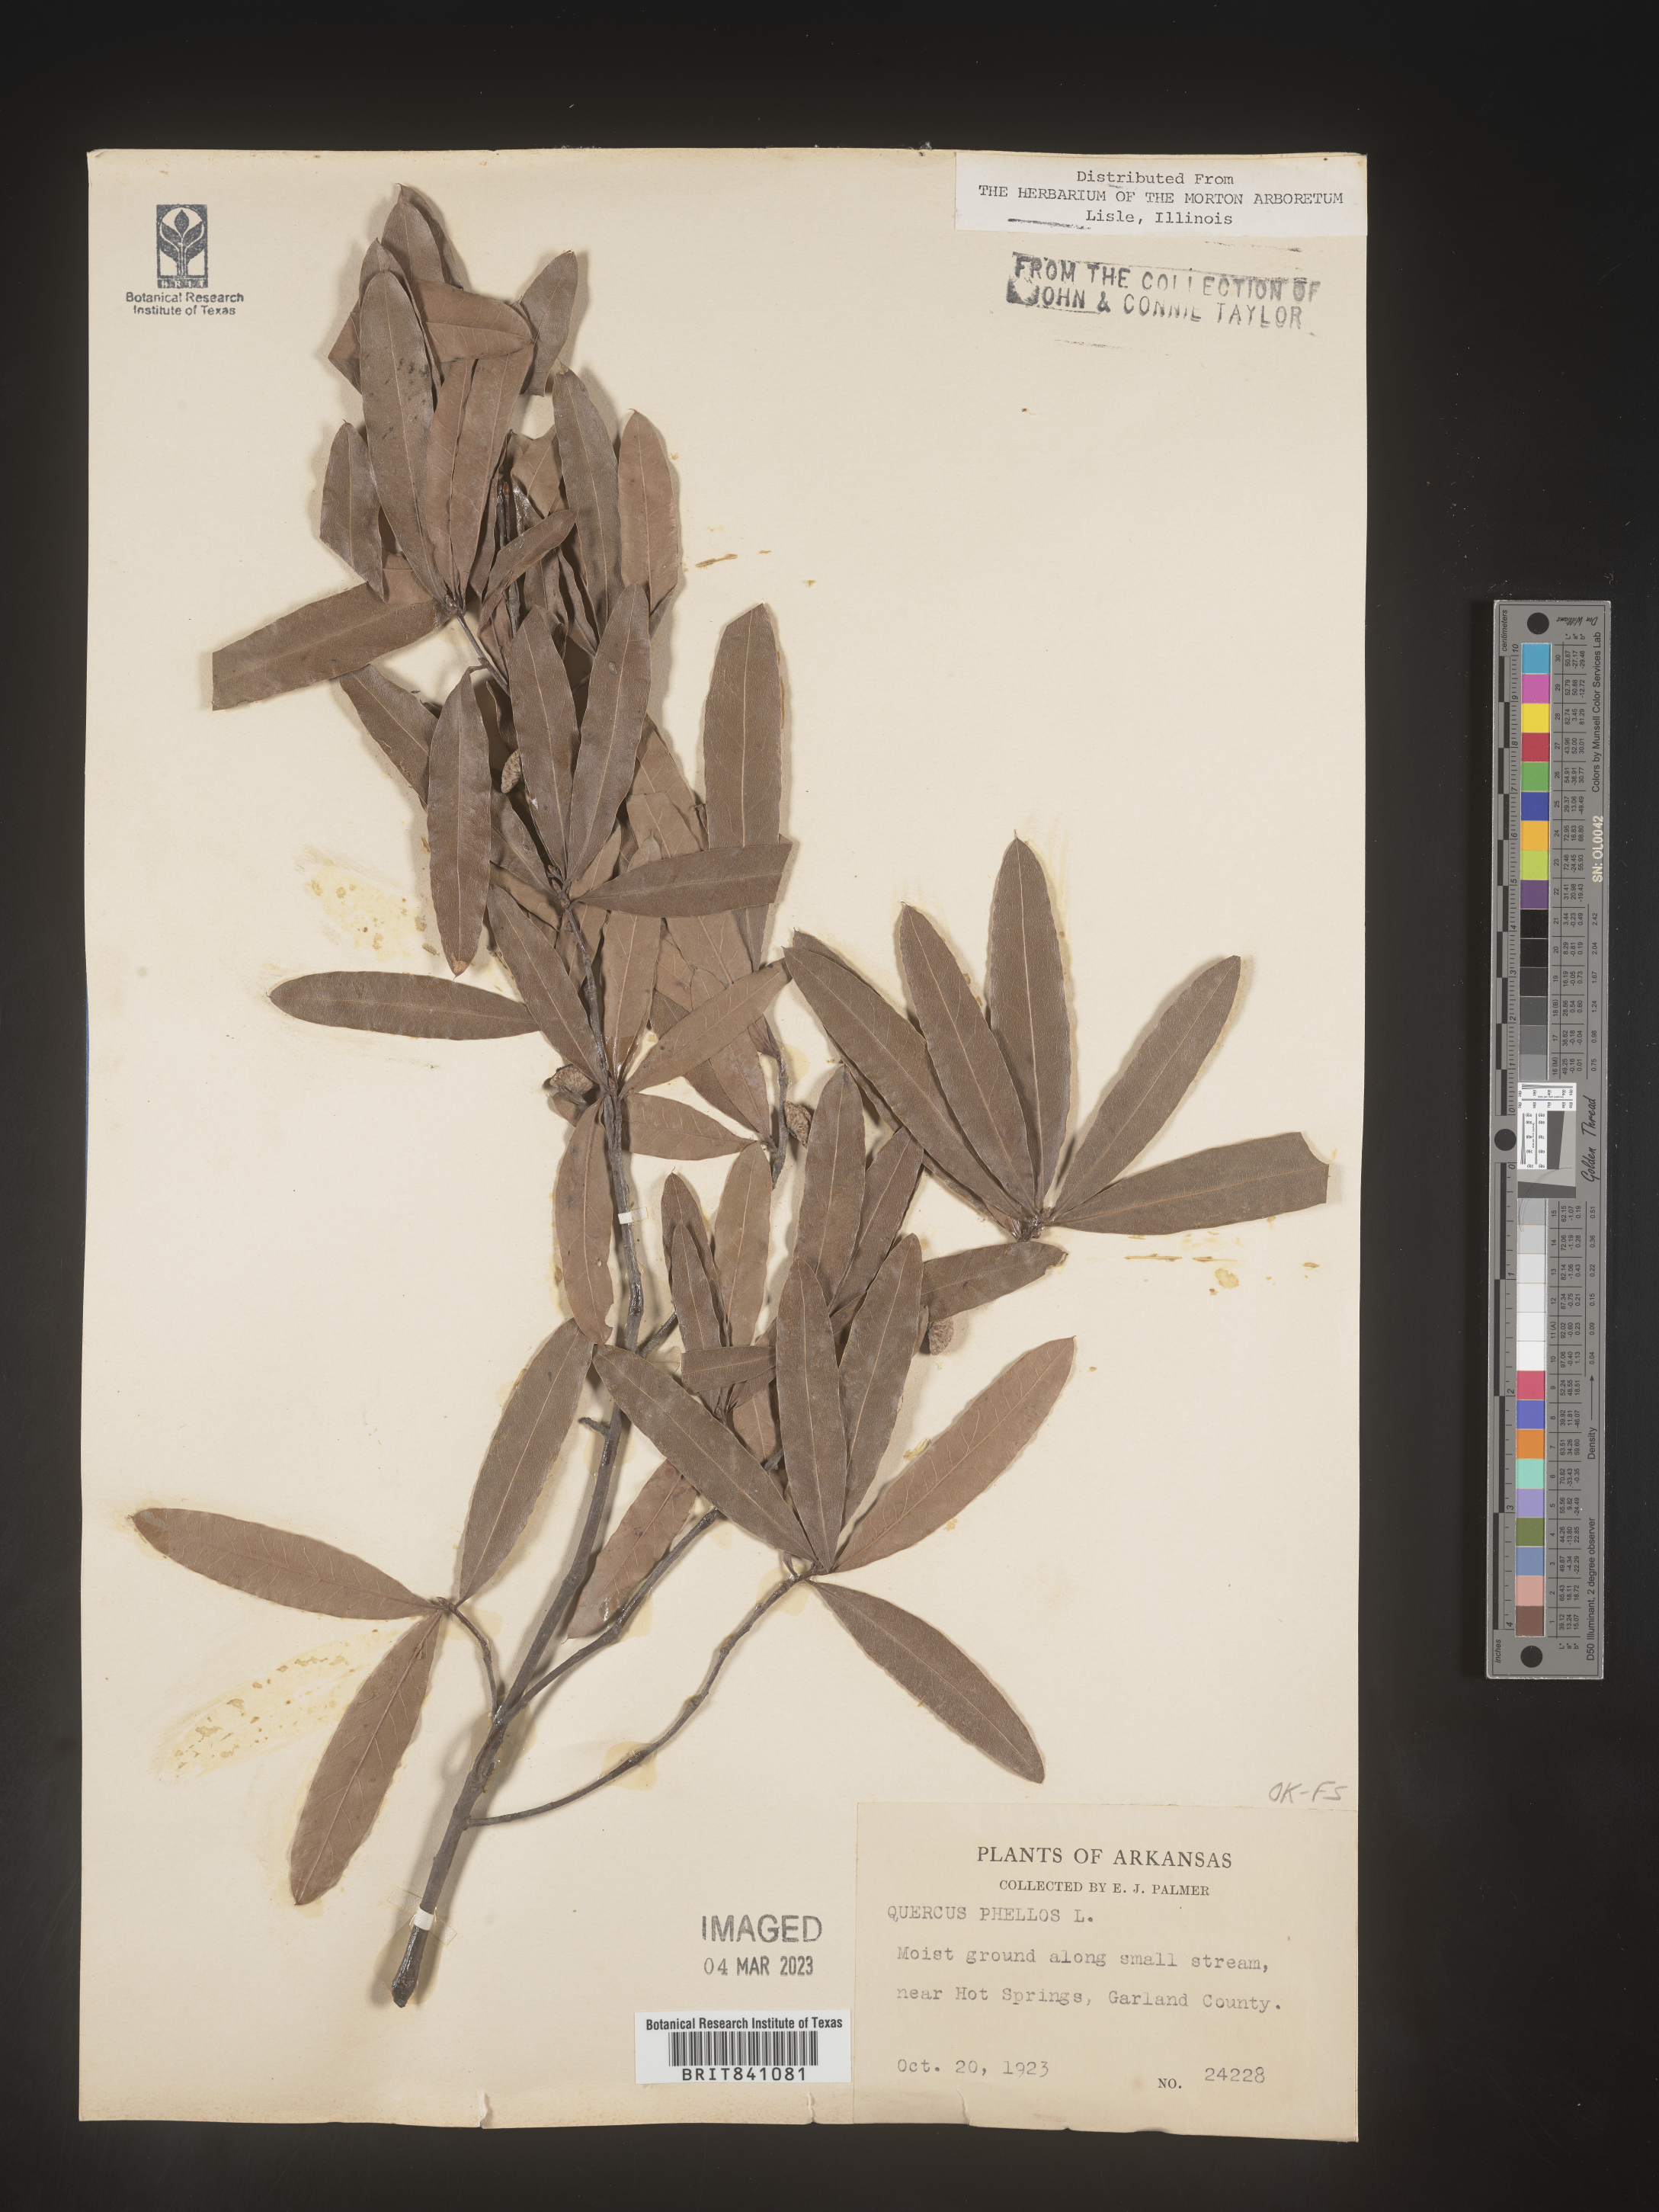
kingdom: Plantae
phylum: Tracheophyta
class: Magnoliopsida
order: Fagales
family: Fagaceae
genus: Quercus
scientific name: Quercus phellos
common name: Willow oak
